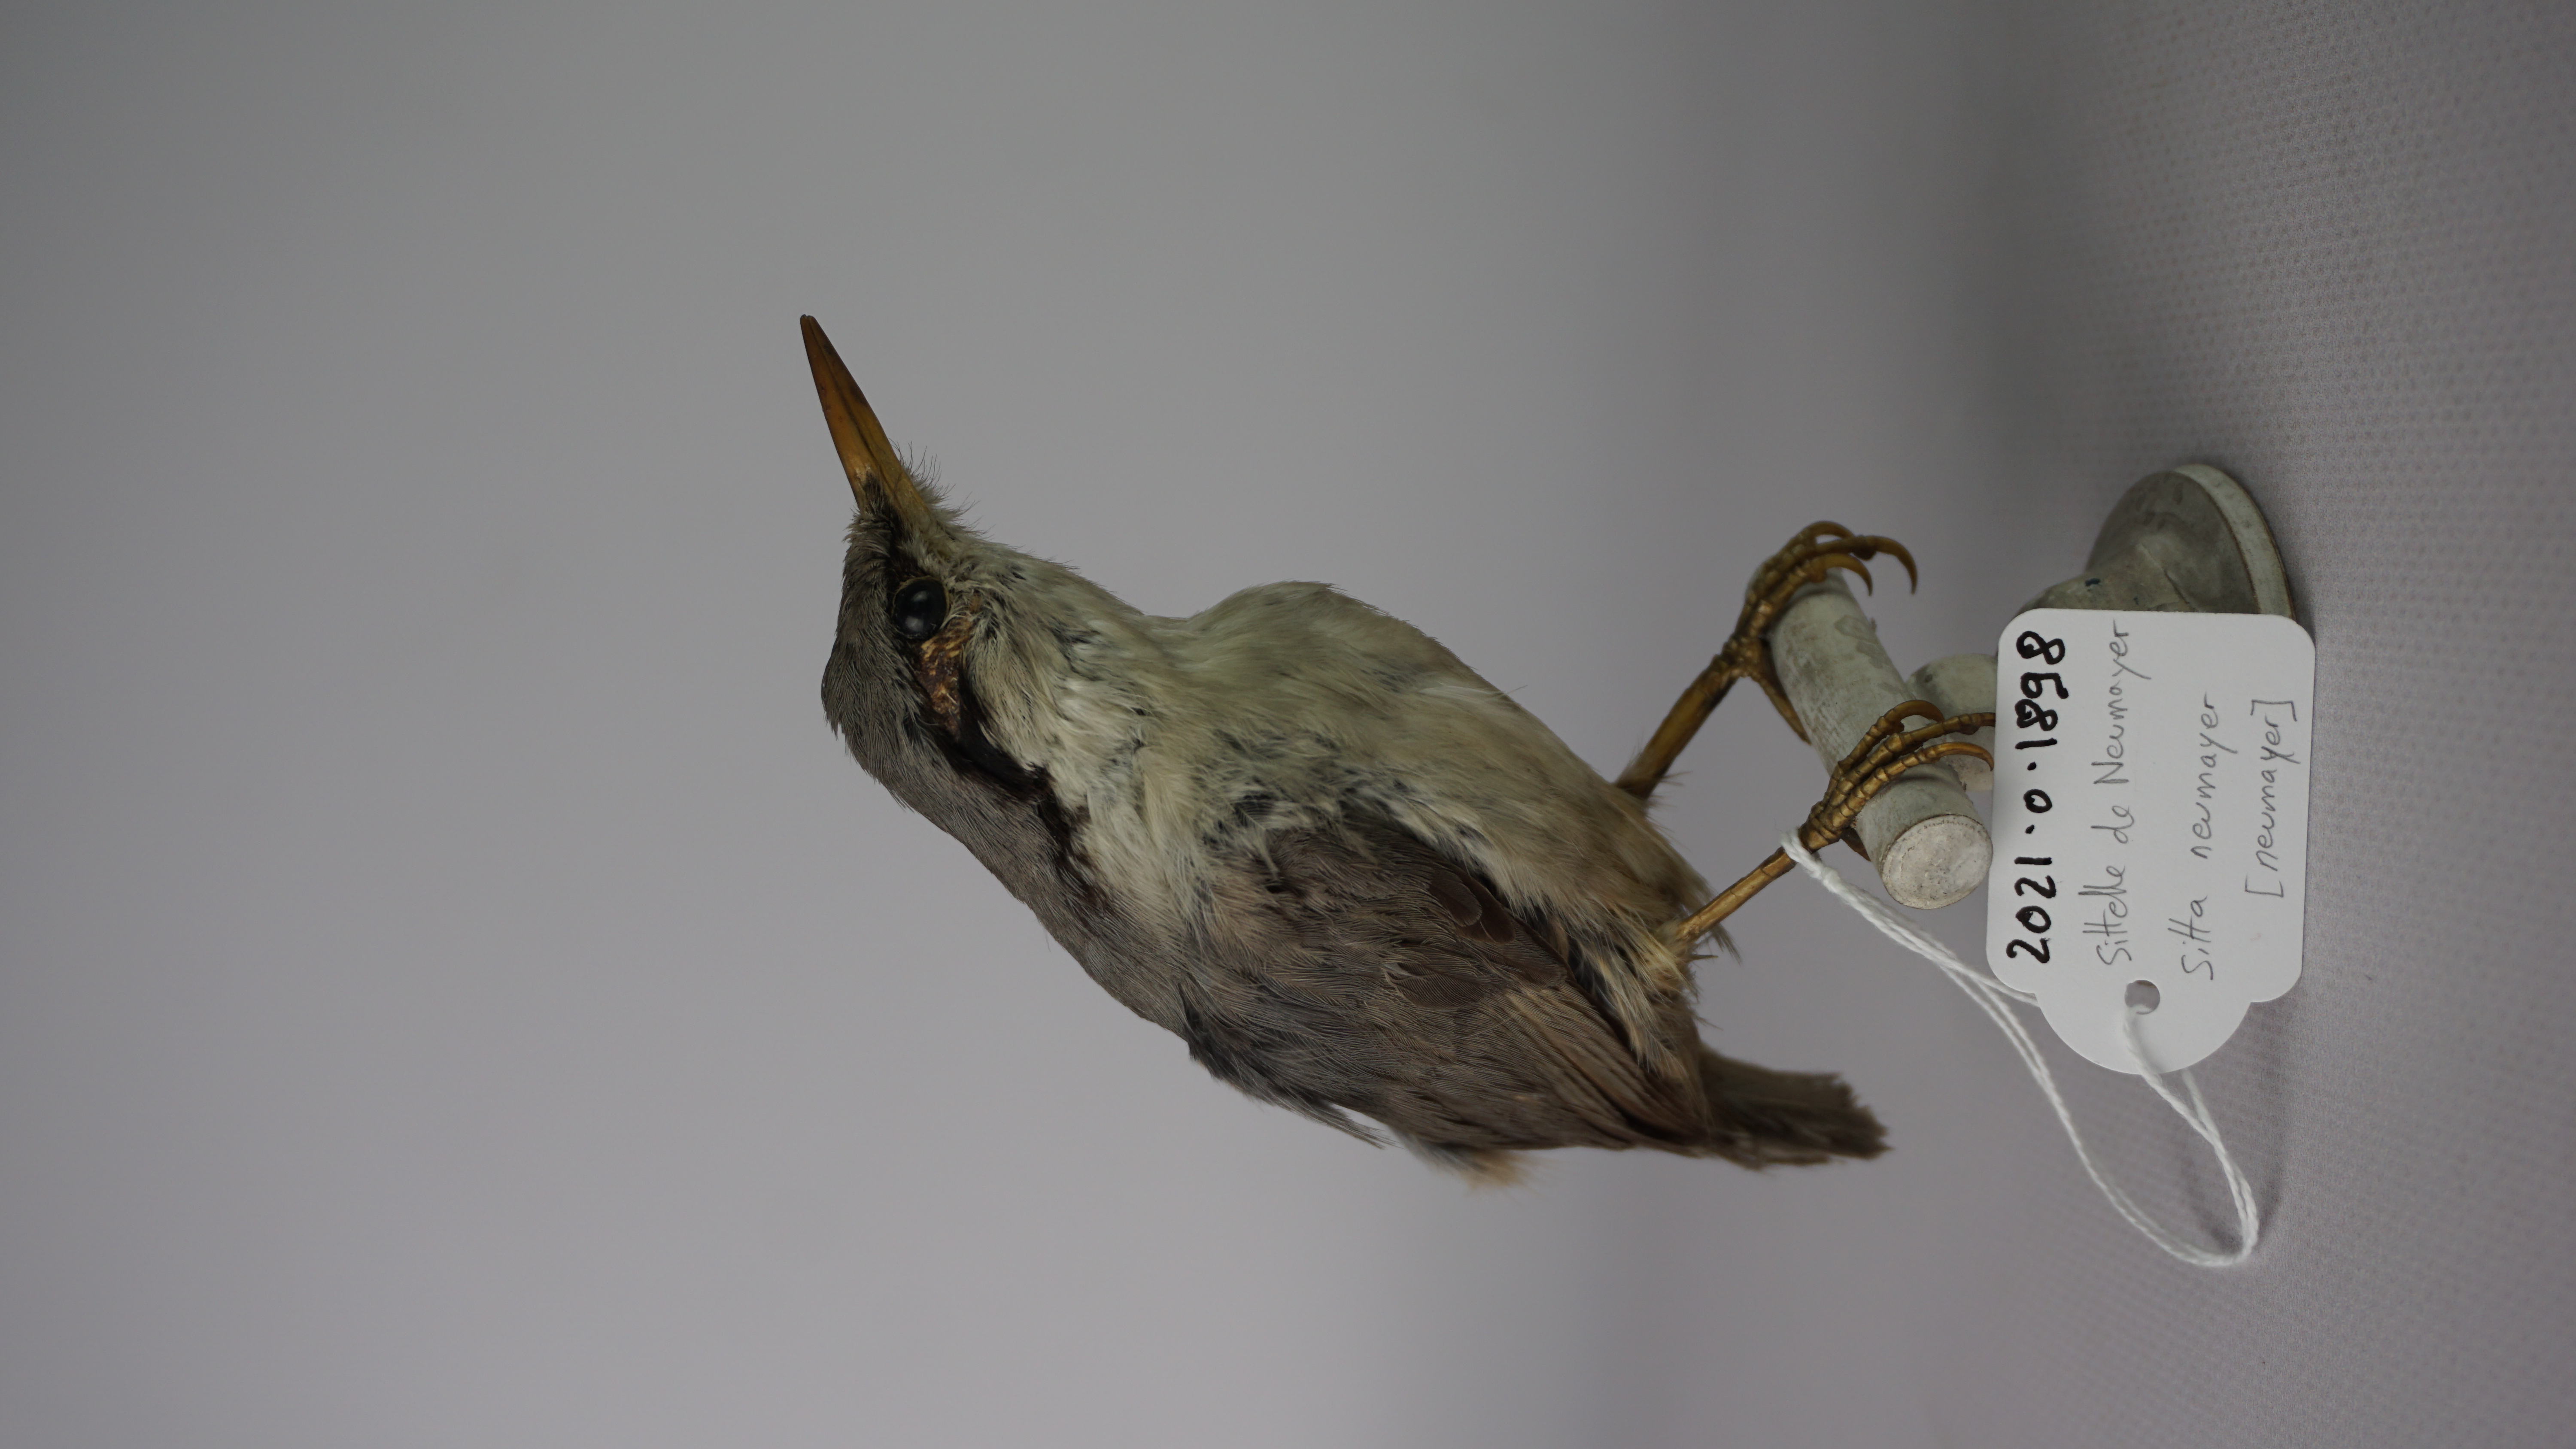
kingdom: Animalia
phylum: Chordata
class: Aves
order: Passeriformes
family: Sittidae
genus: Sitta
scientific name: Sitta neumayer
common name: Western rock nuthatch
